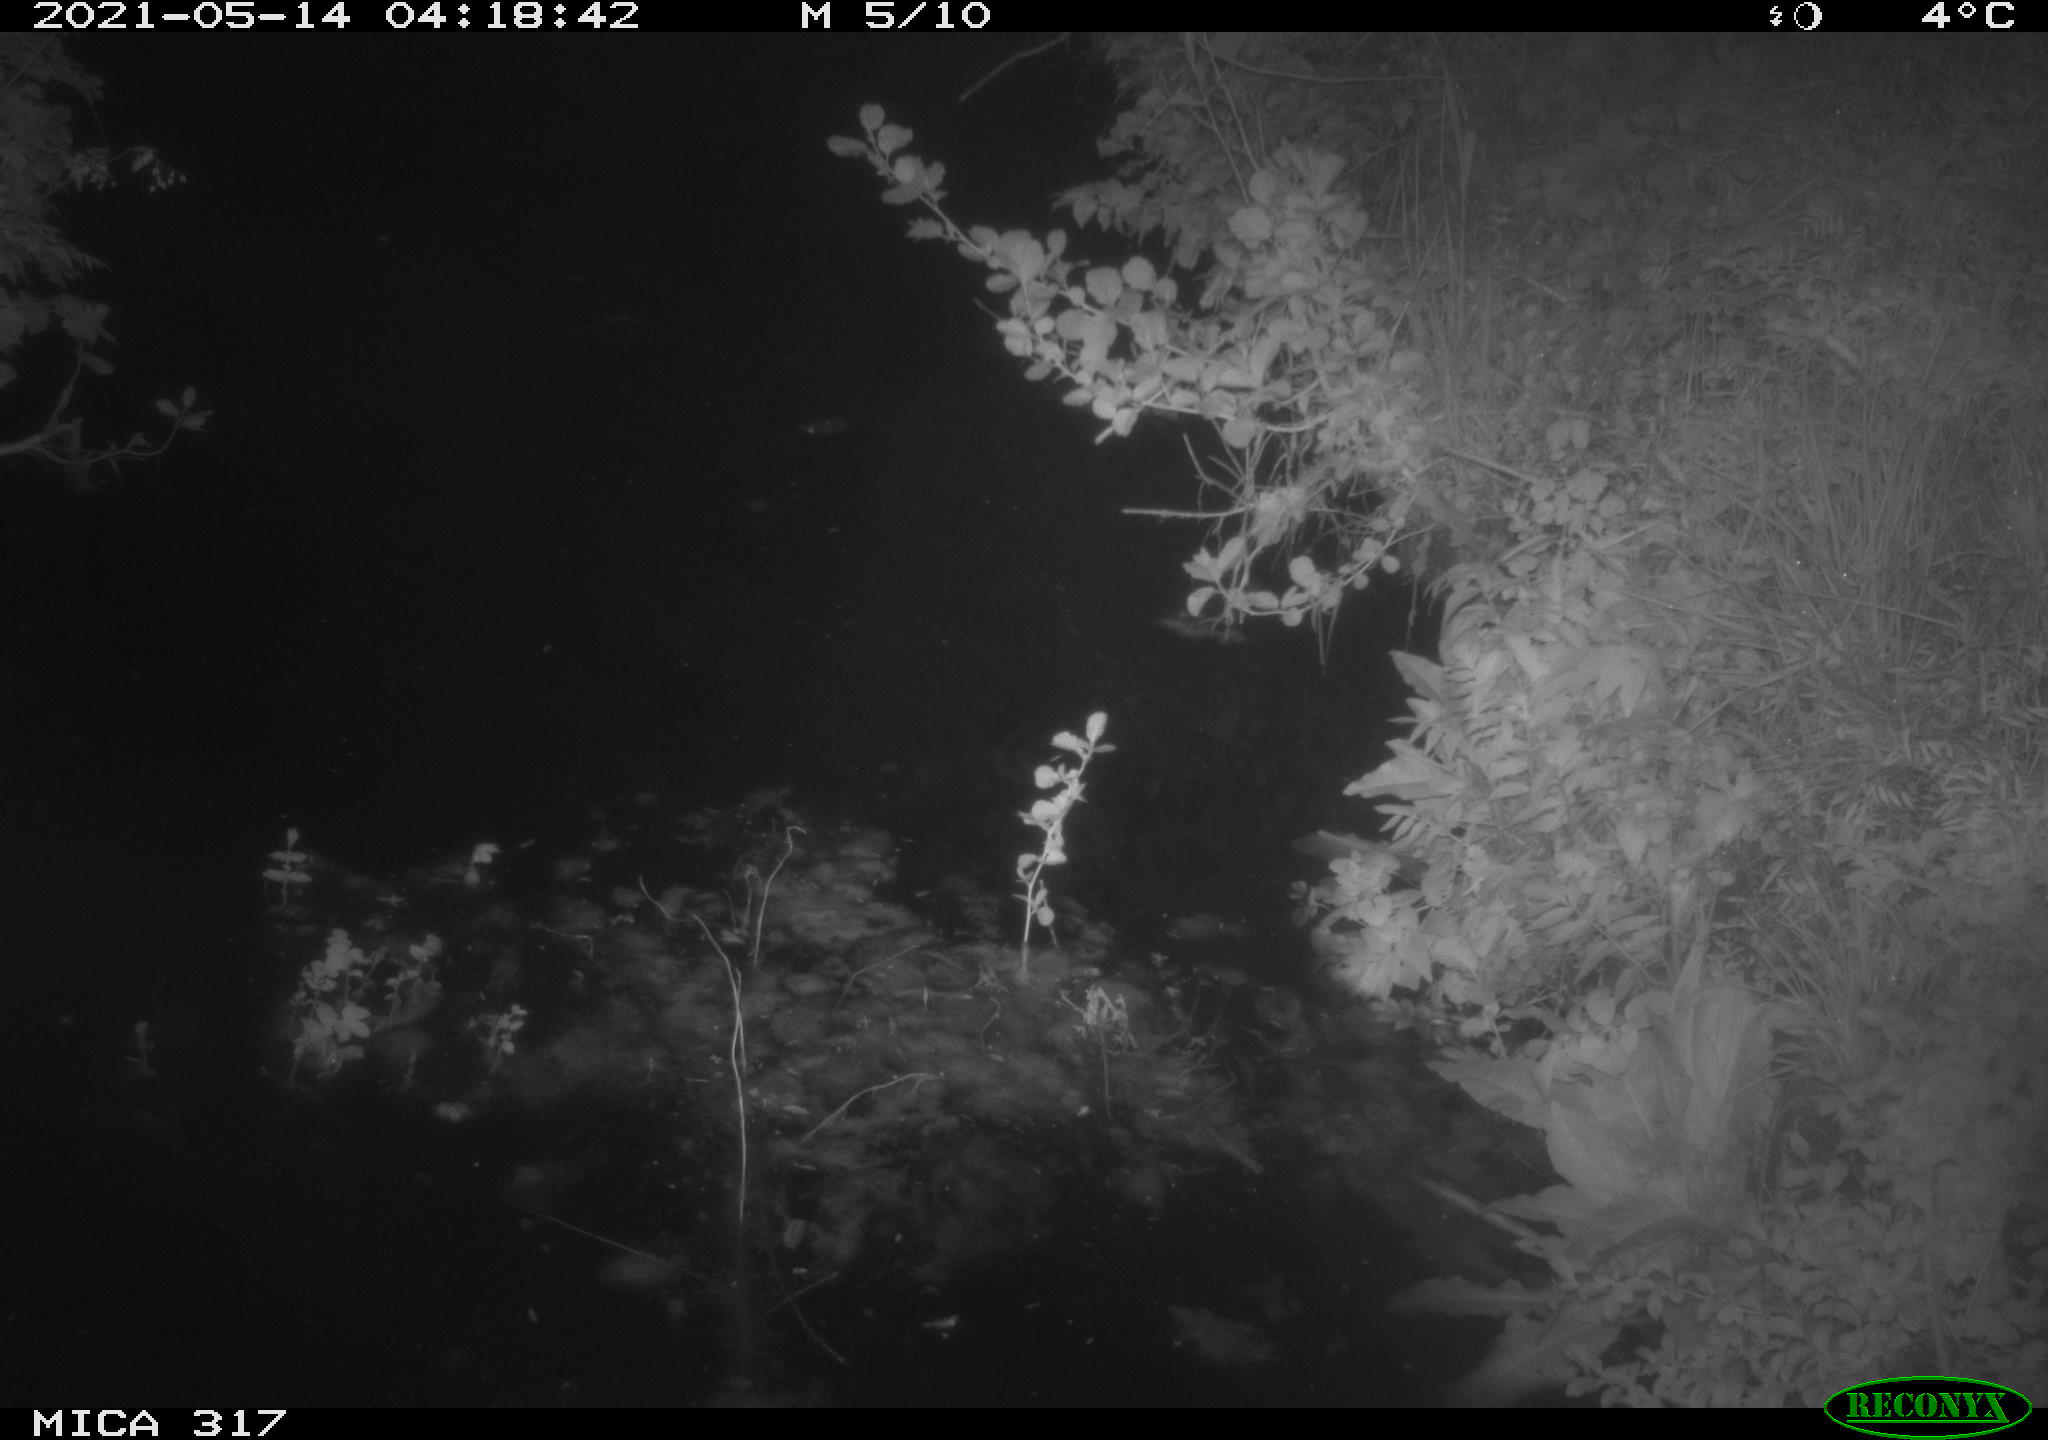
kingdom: Animalia
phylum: Chordata
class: Aves
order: Anseriformes
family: Anatidae
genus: Anas
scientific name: Anas
